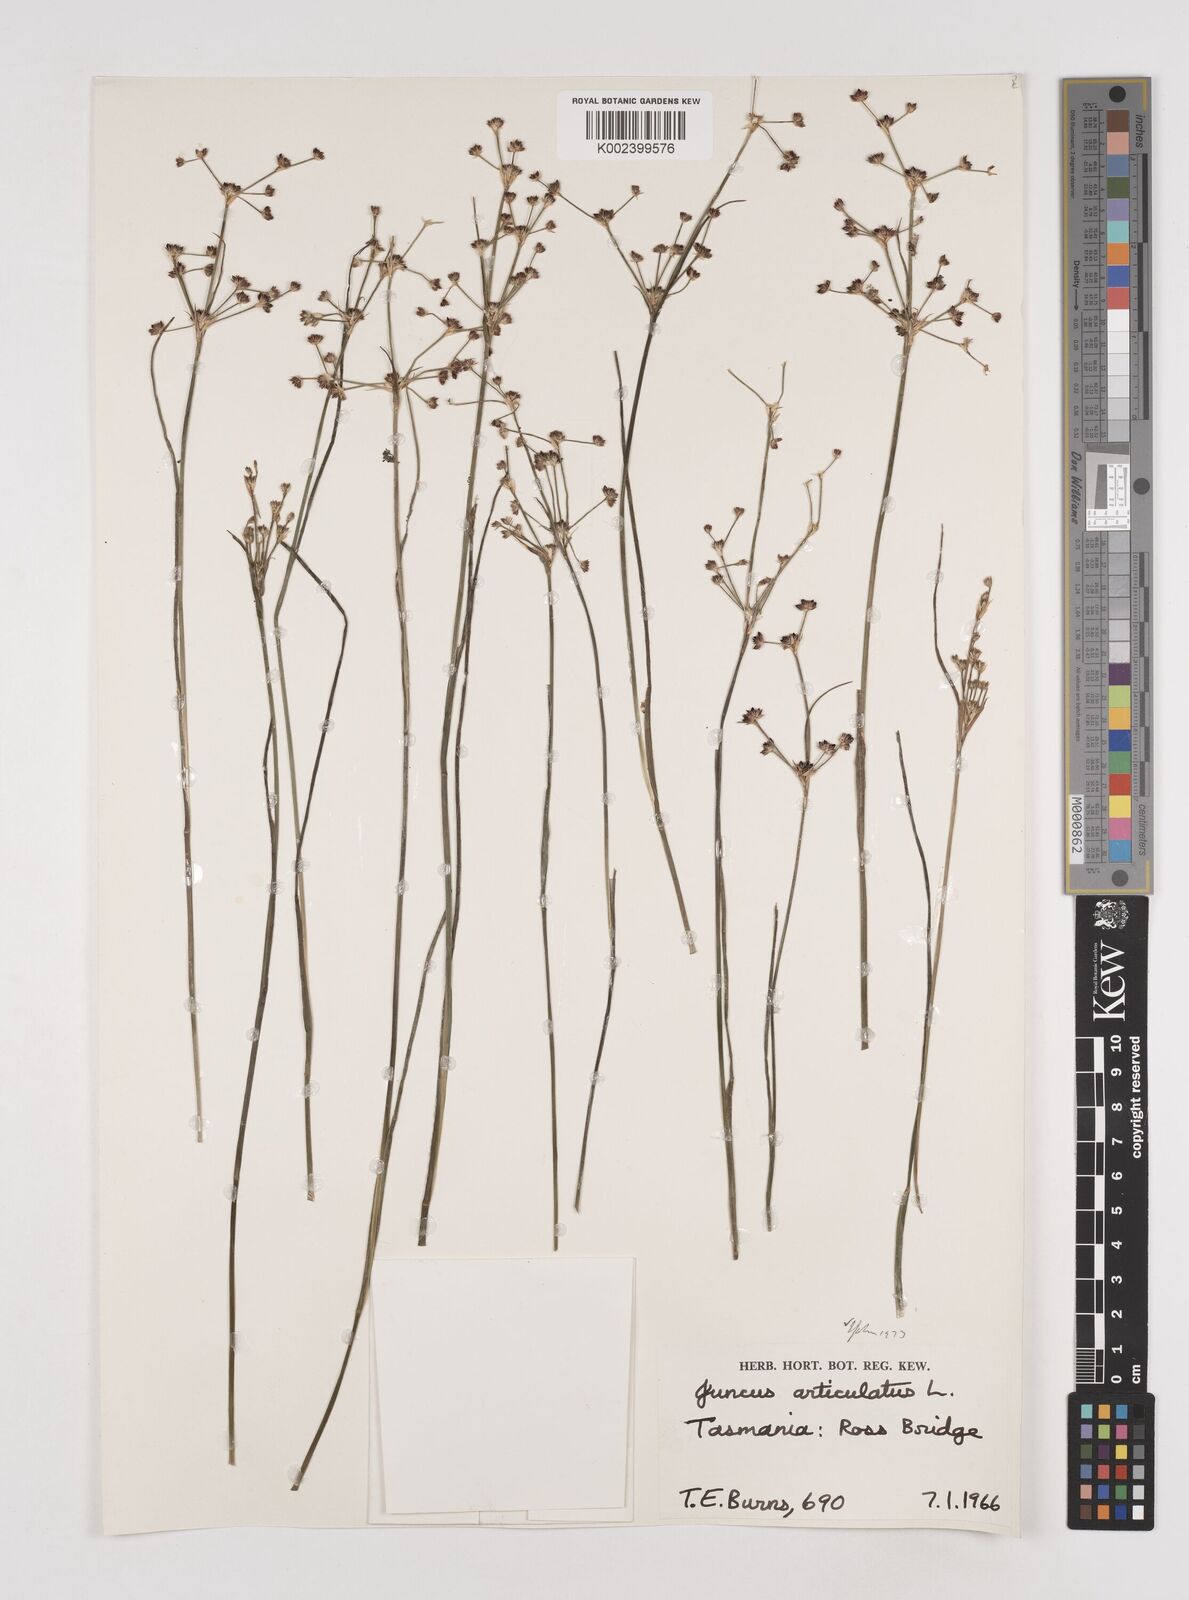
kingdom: Plantae
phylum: Tracheophyta
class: Liliopsida
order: Poales
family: Juncaceae
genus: Juncus
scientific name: Juncus articulatus
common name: Jointed rush
